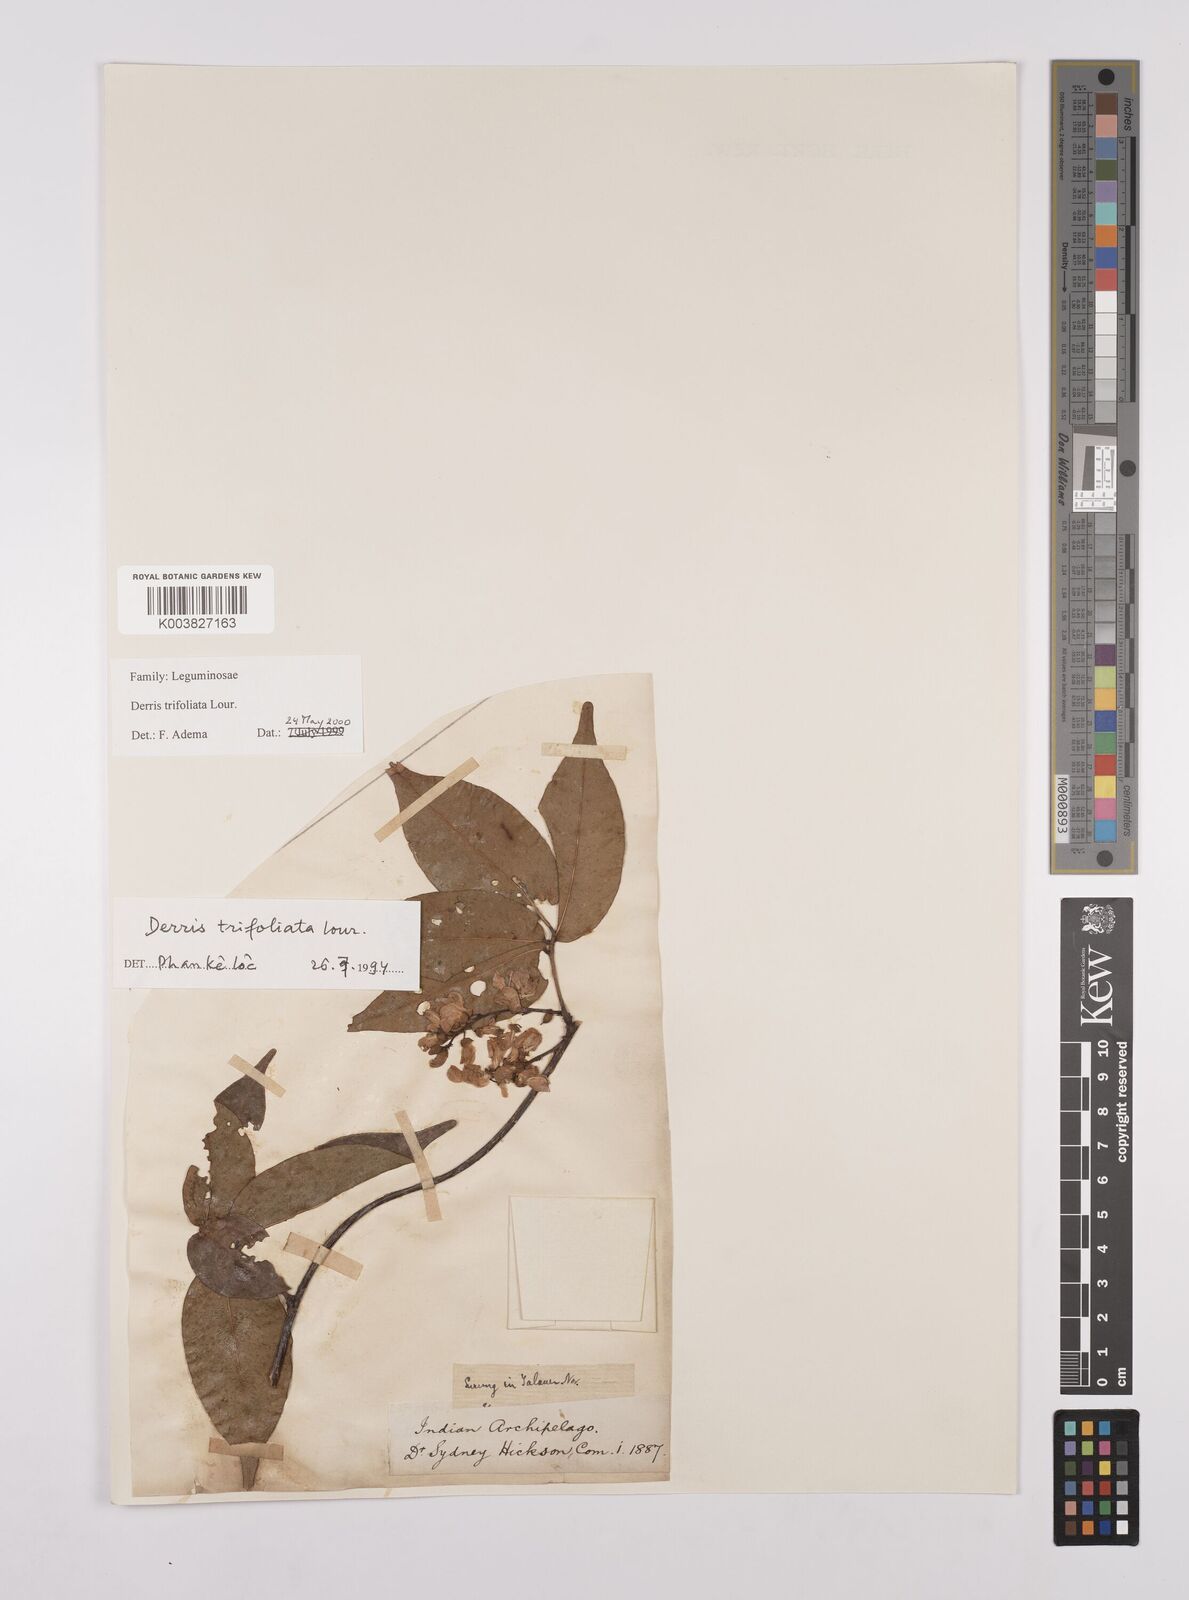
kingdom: Plantae
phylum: Tracheophyta
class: Magnoliopsida
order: Fabales
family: Fabaceae
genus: Derris
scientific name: Derris trifoliata
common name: Three-leaf derris
